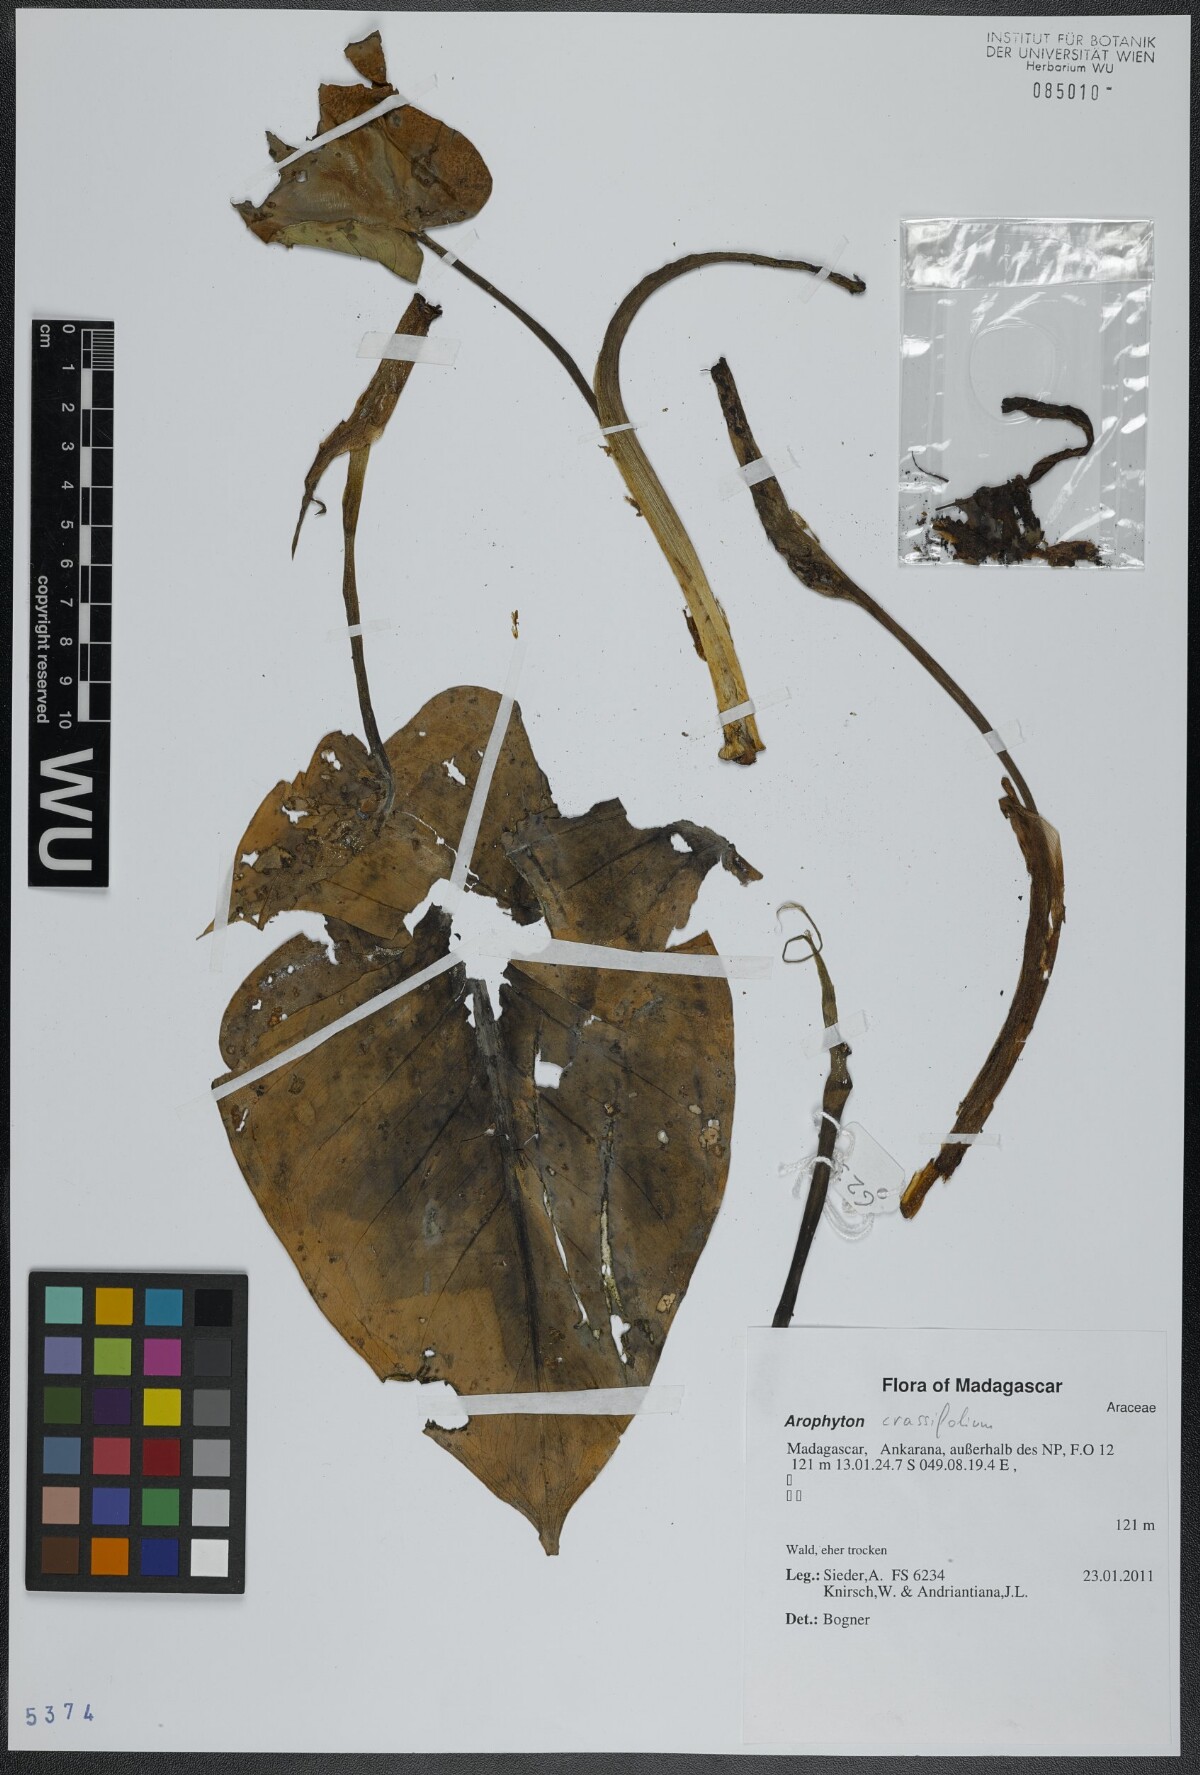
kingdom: Plantae
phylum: Tracheophyta
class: Liliopsida
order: Alismatales
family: Araceae
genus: Arophyton
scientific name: Arophyton crassifolium
